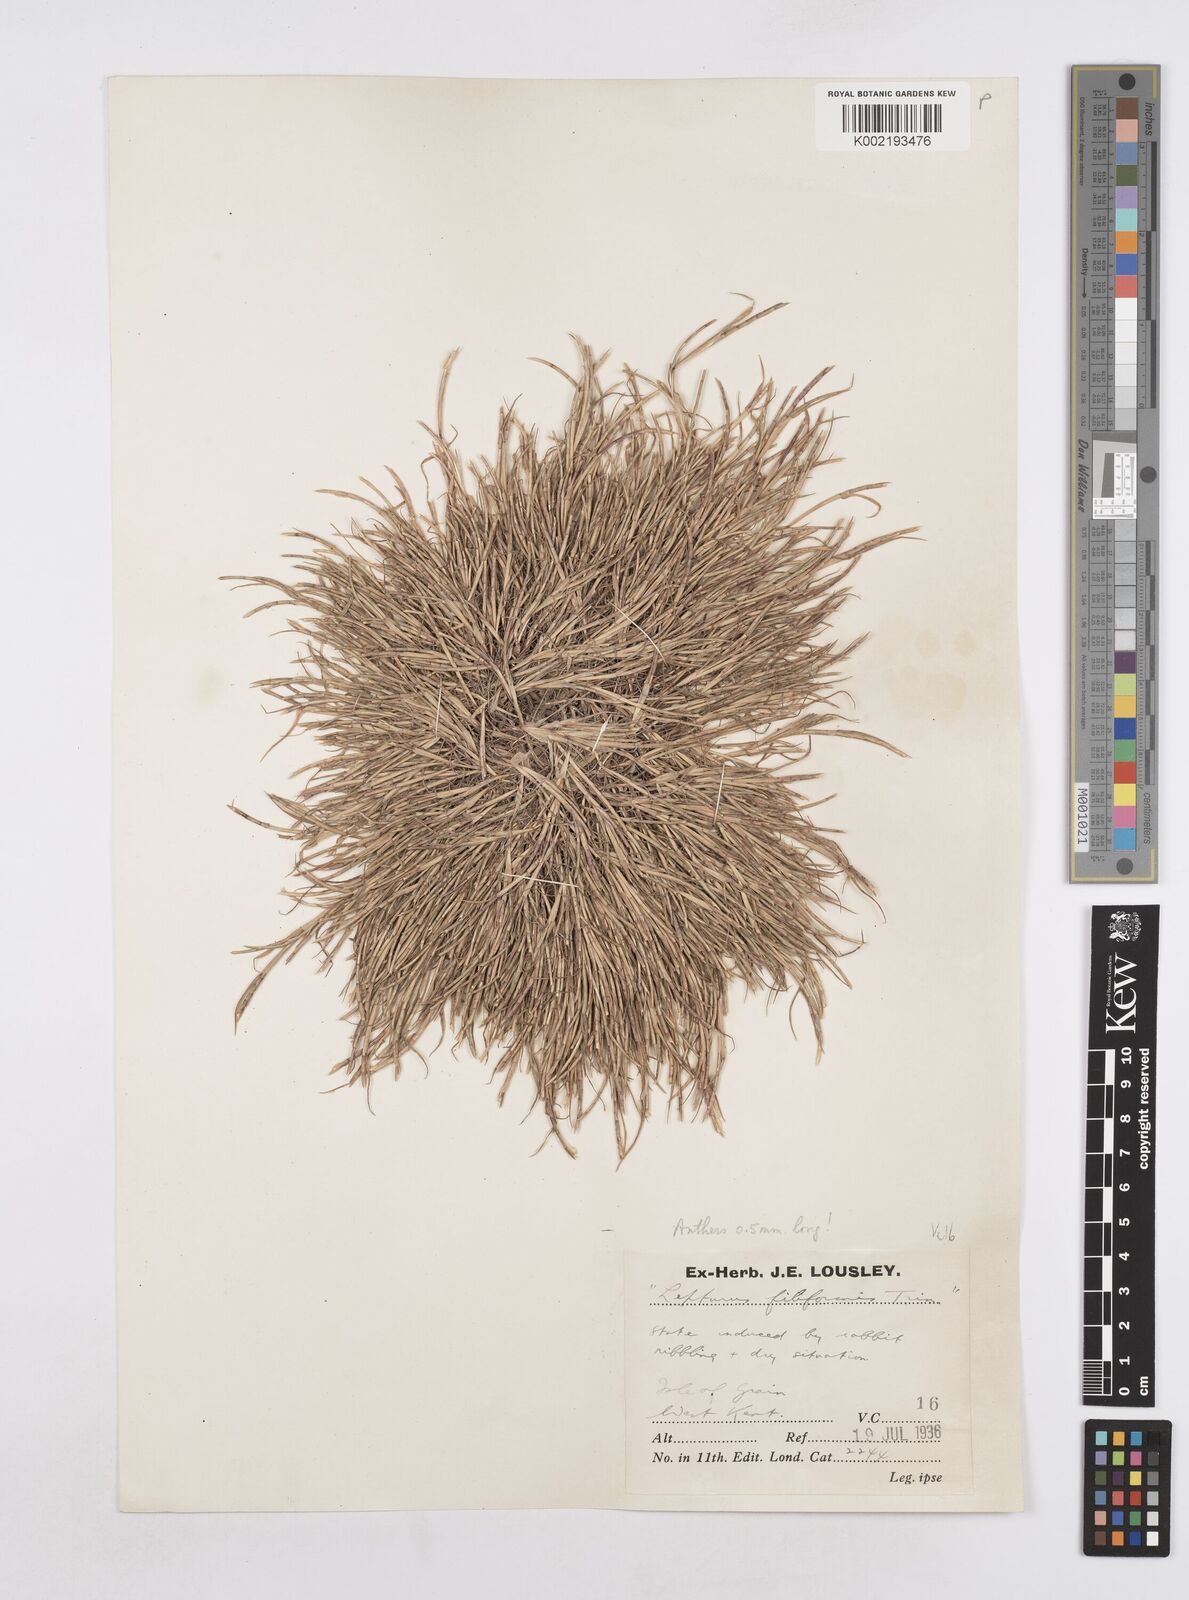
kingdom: Plantae
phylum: Tracheophyta
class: Liliopsida
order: Poales
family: Poaceae
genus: Parapholis
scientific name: Parapholis incurva
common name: Curved sicklegrass
